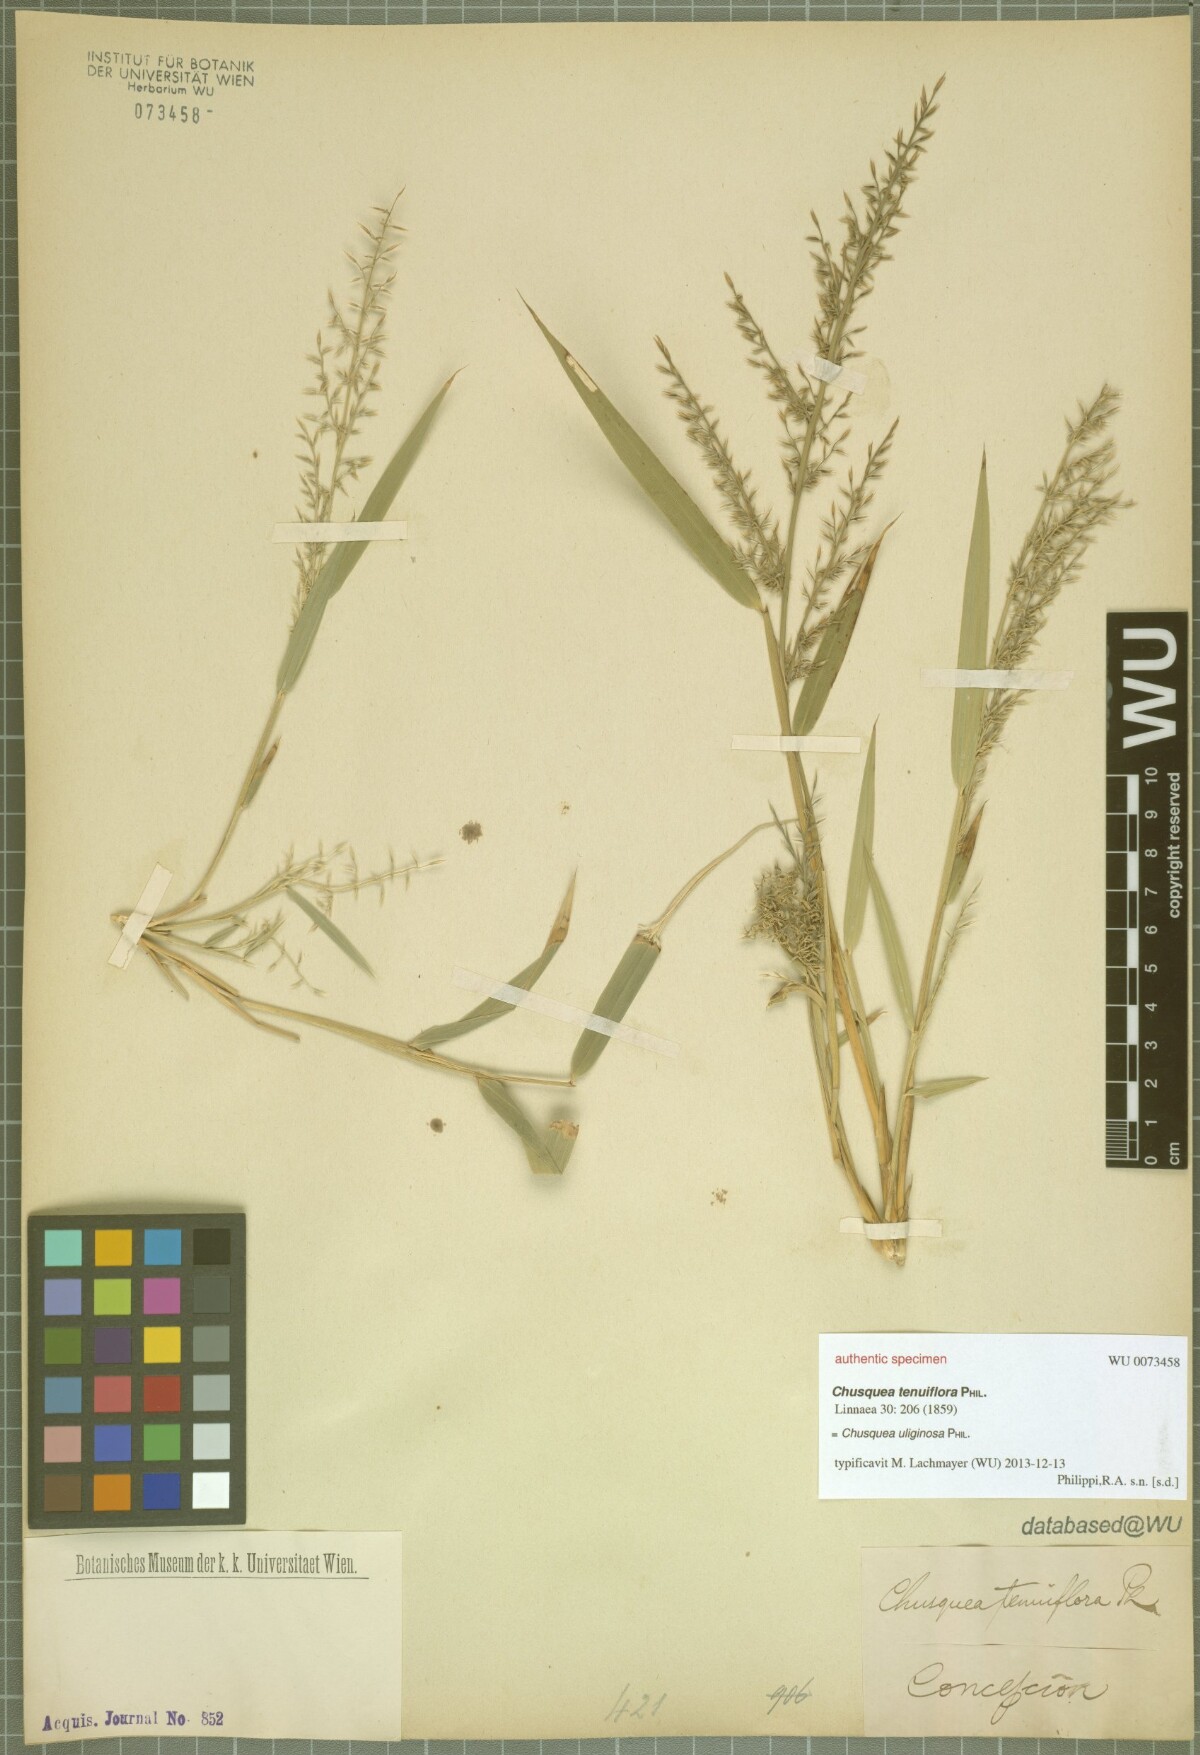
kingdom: Plantae
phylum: Tracheophyta
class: Liliopsida
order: Poales
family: Poaceae
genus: Chusquea
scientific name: Chusquea uliginosa
